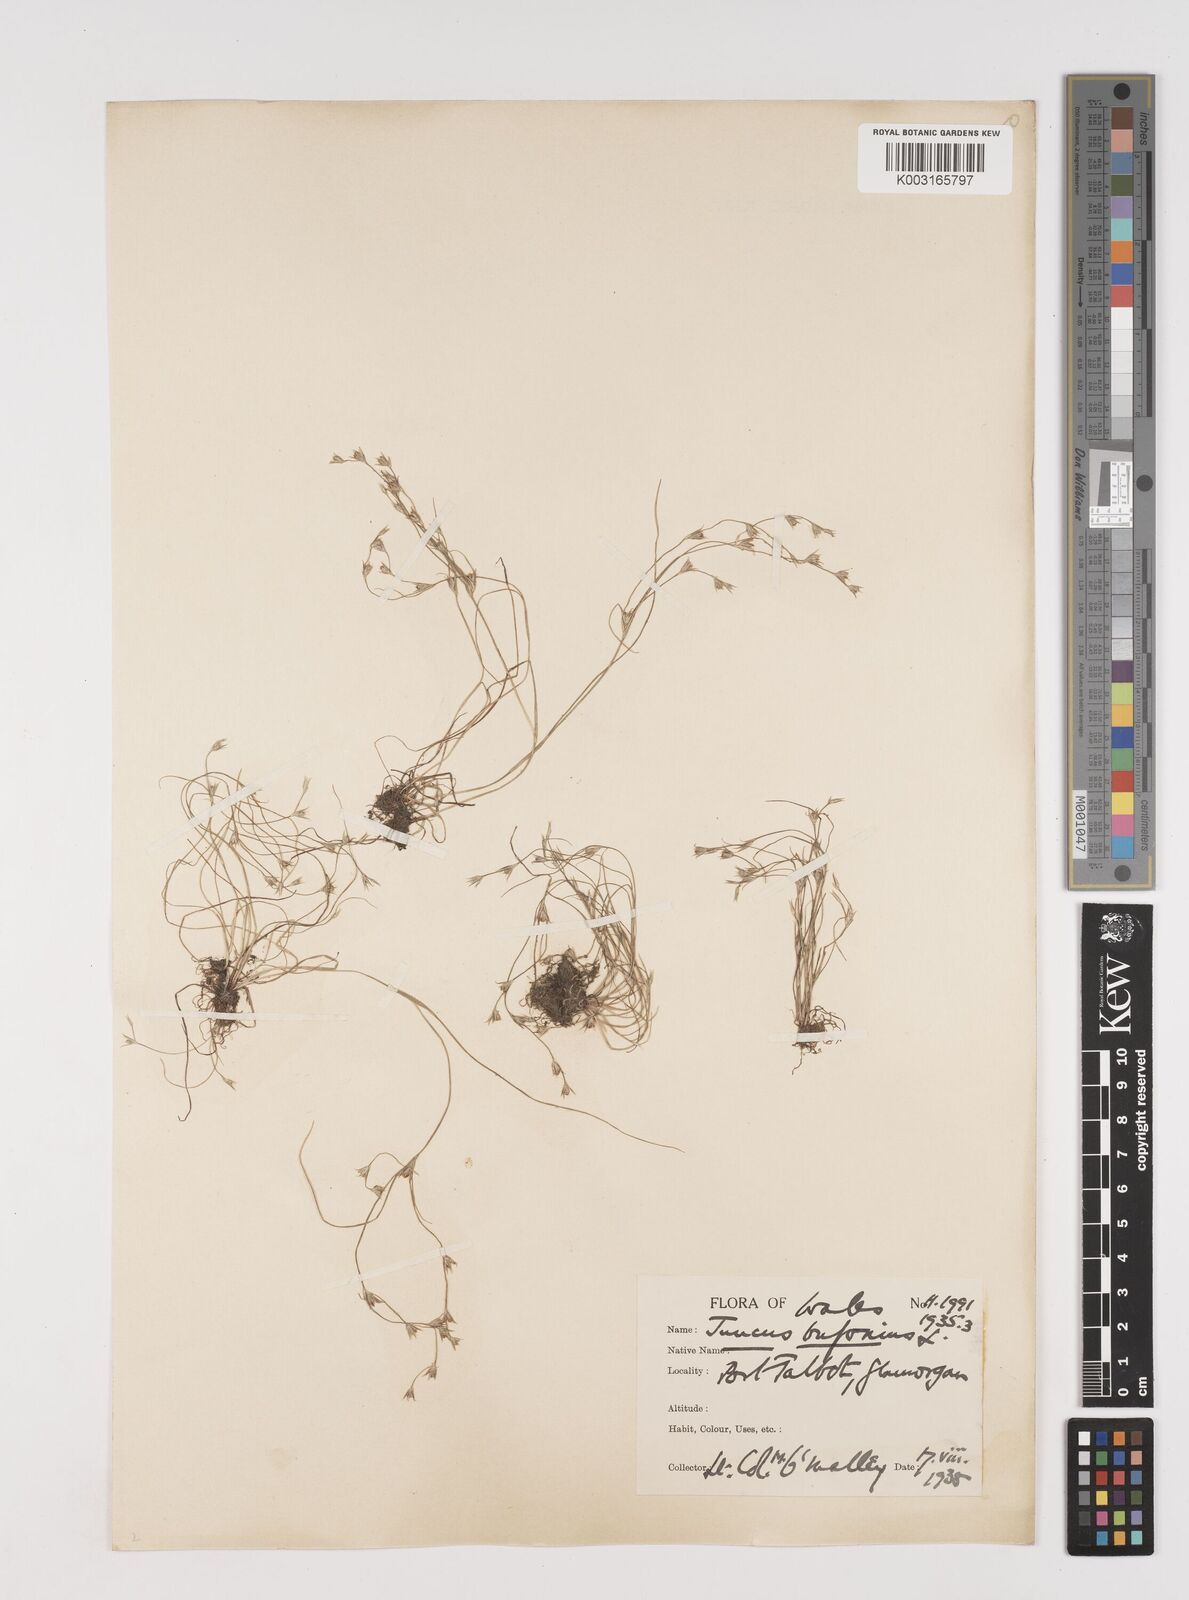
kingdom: Plantae
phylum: Tracheophyta
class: Liliopsida
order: Poales
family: Juncaceae
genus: Juncus
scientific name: Juncus bufonius
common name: Toad rush
